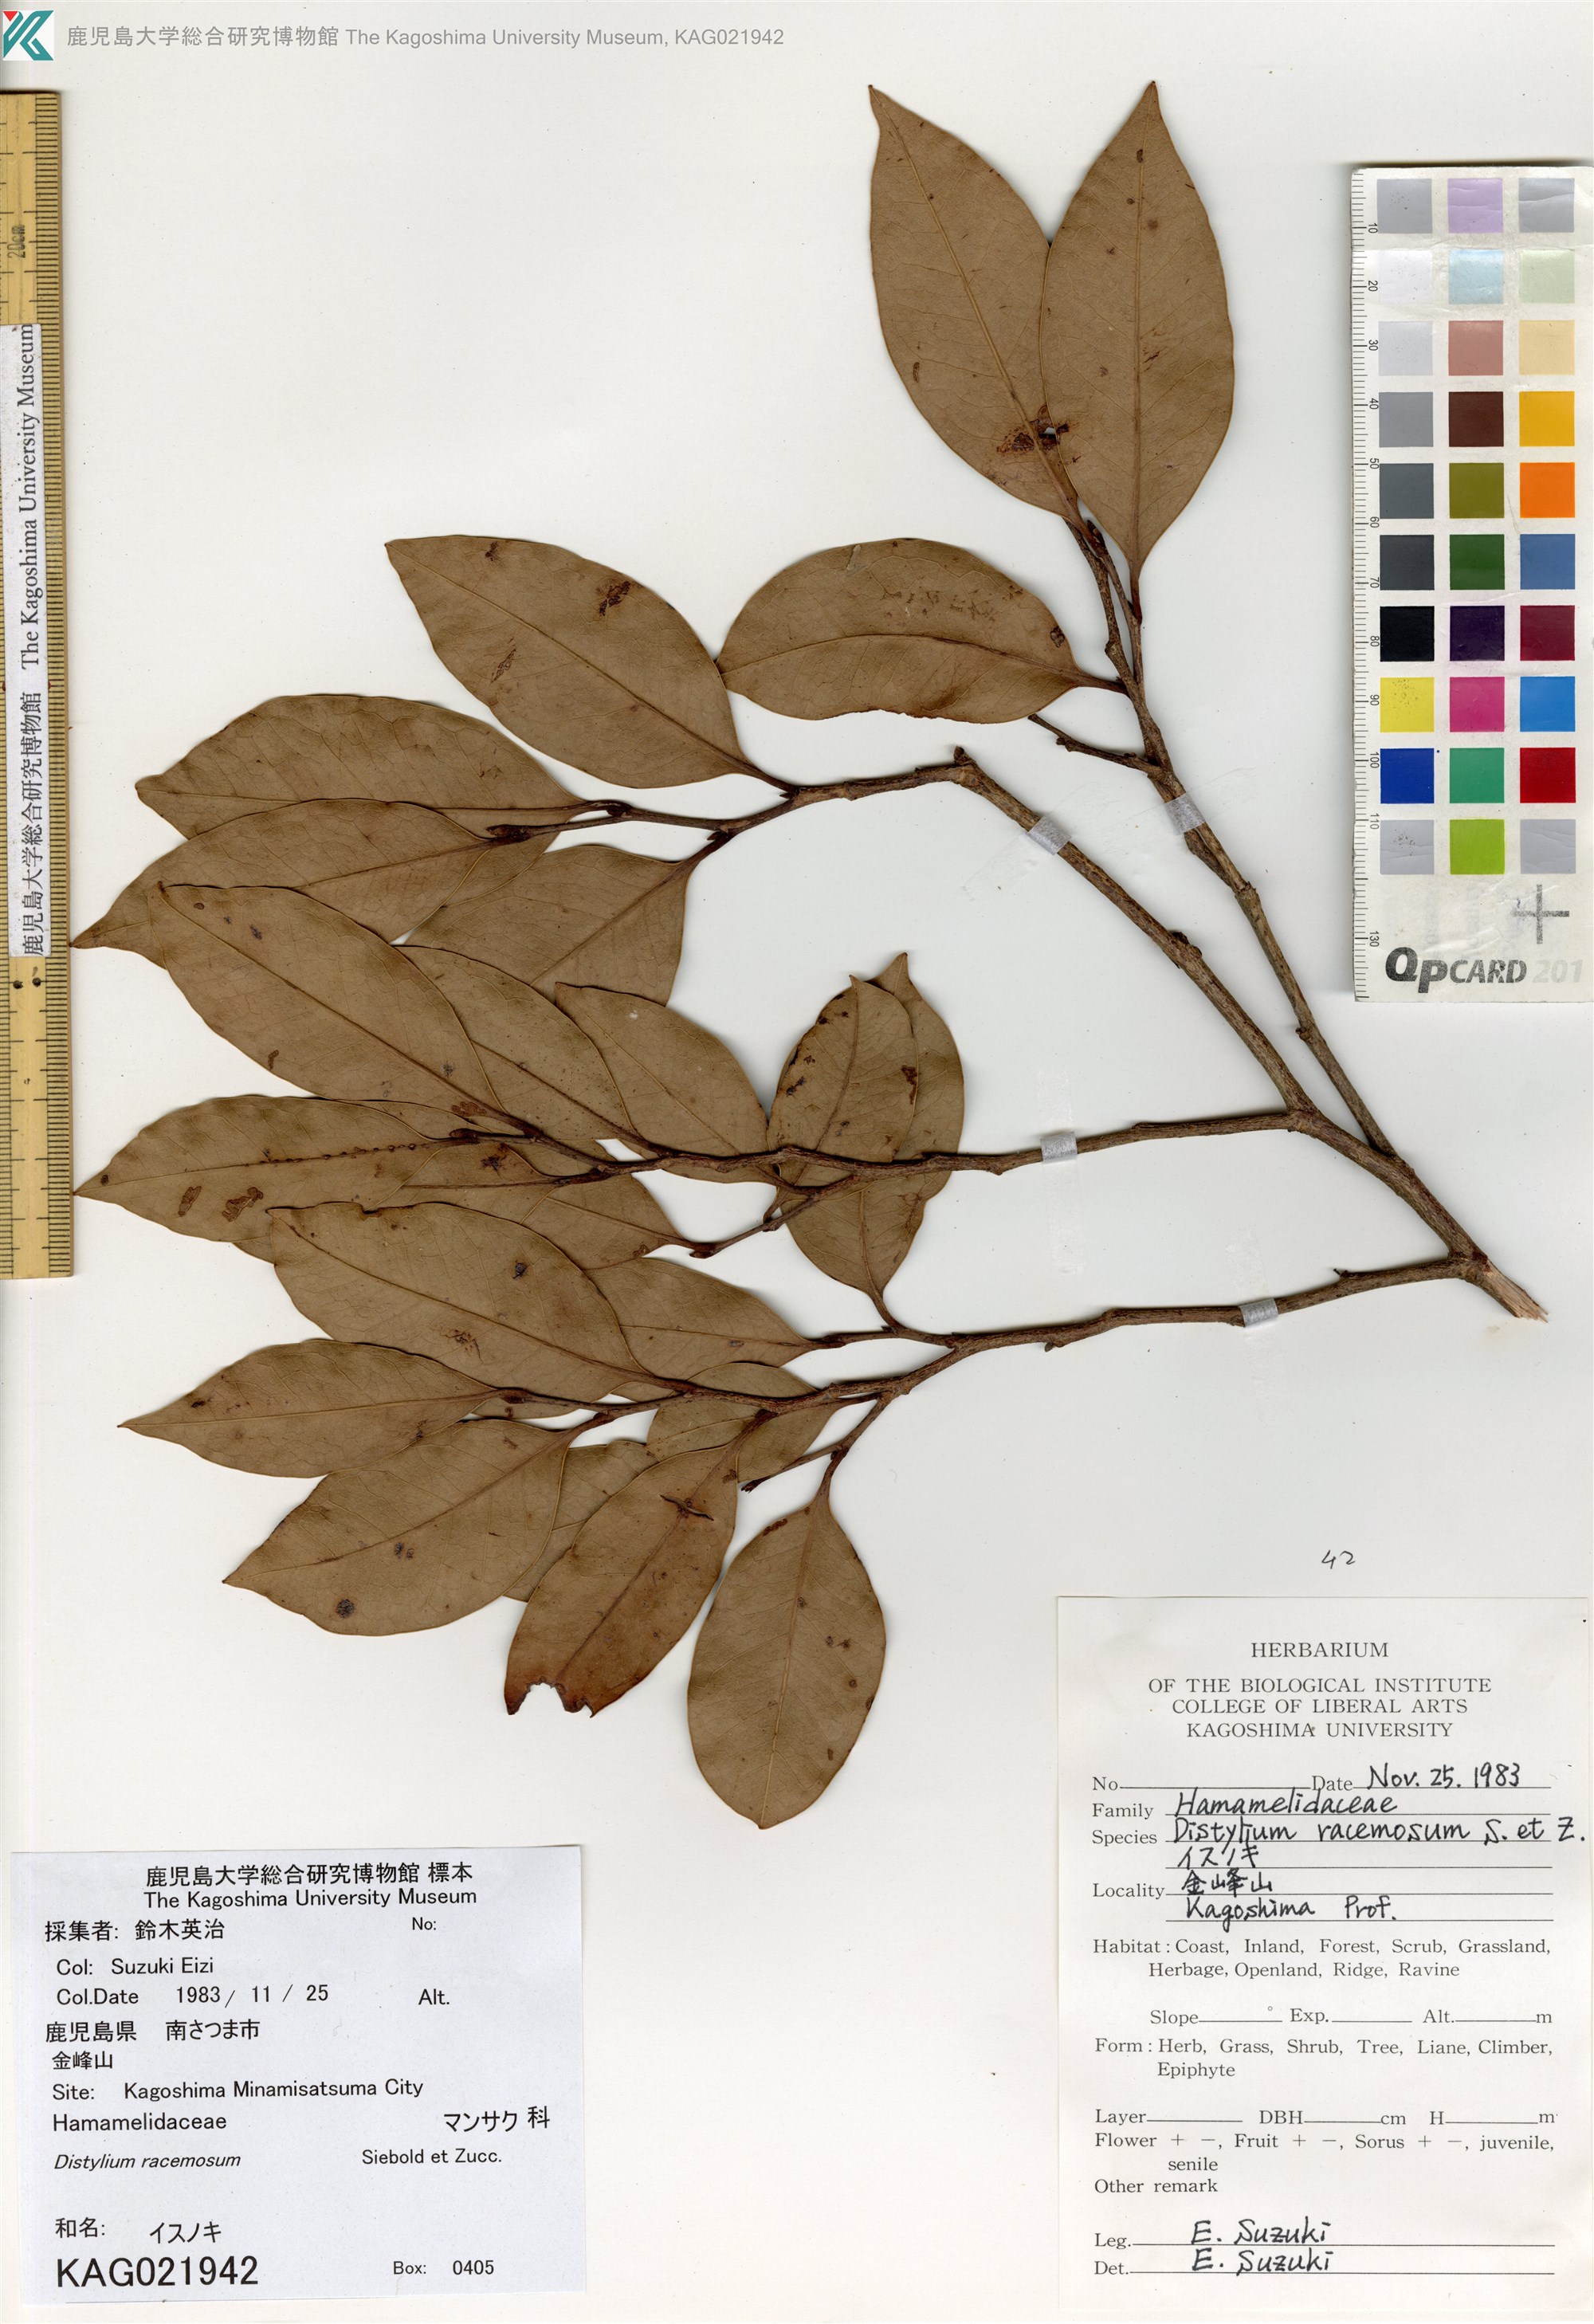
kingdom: Plantae
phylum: Tracheophyta
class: Magnoliopsida
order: Saxifragales
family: Hamamelidaceae
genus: Distylium
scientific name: Distylium racemosum
